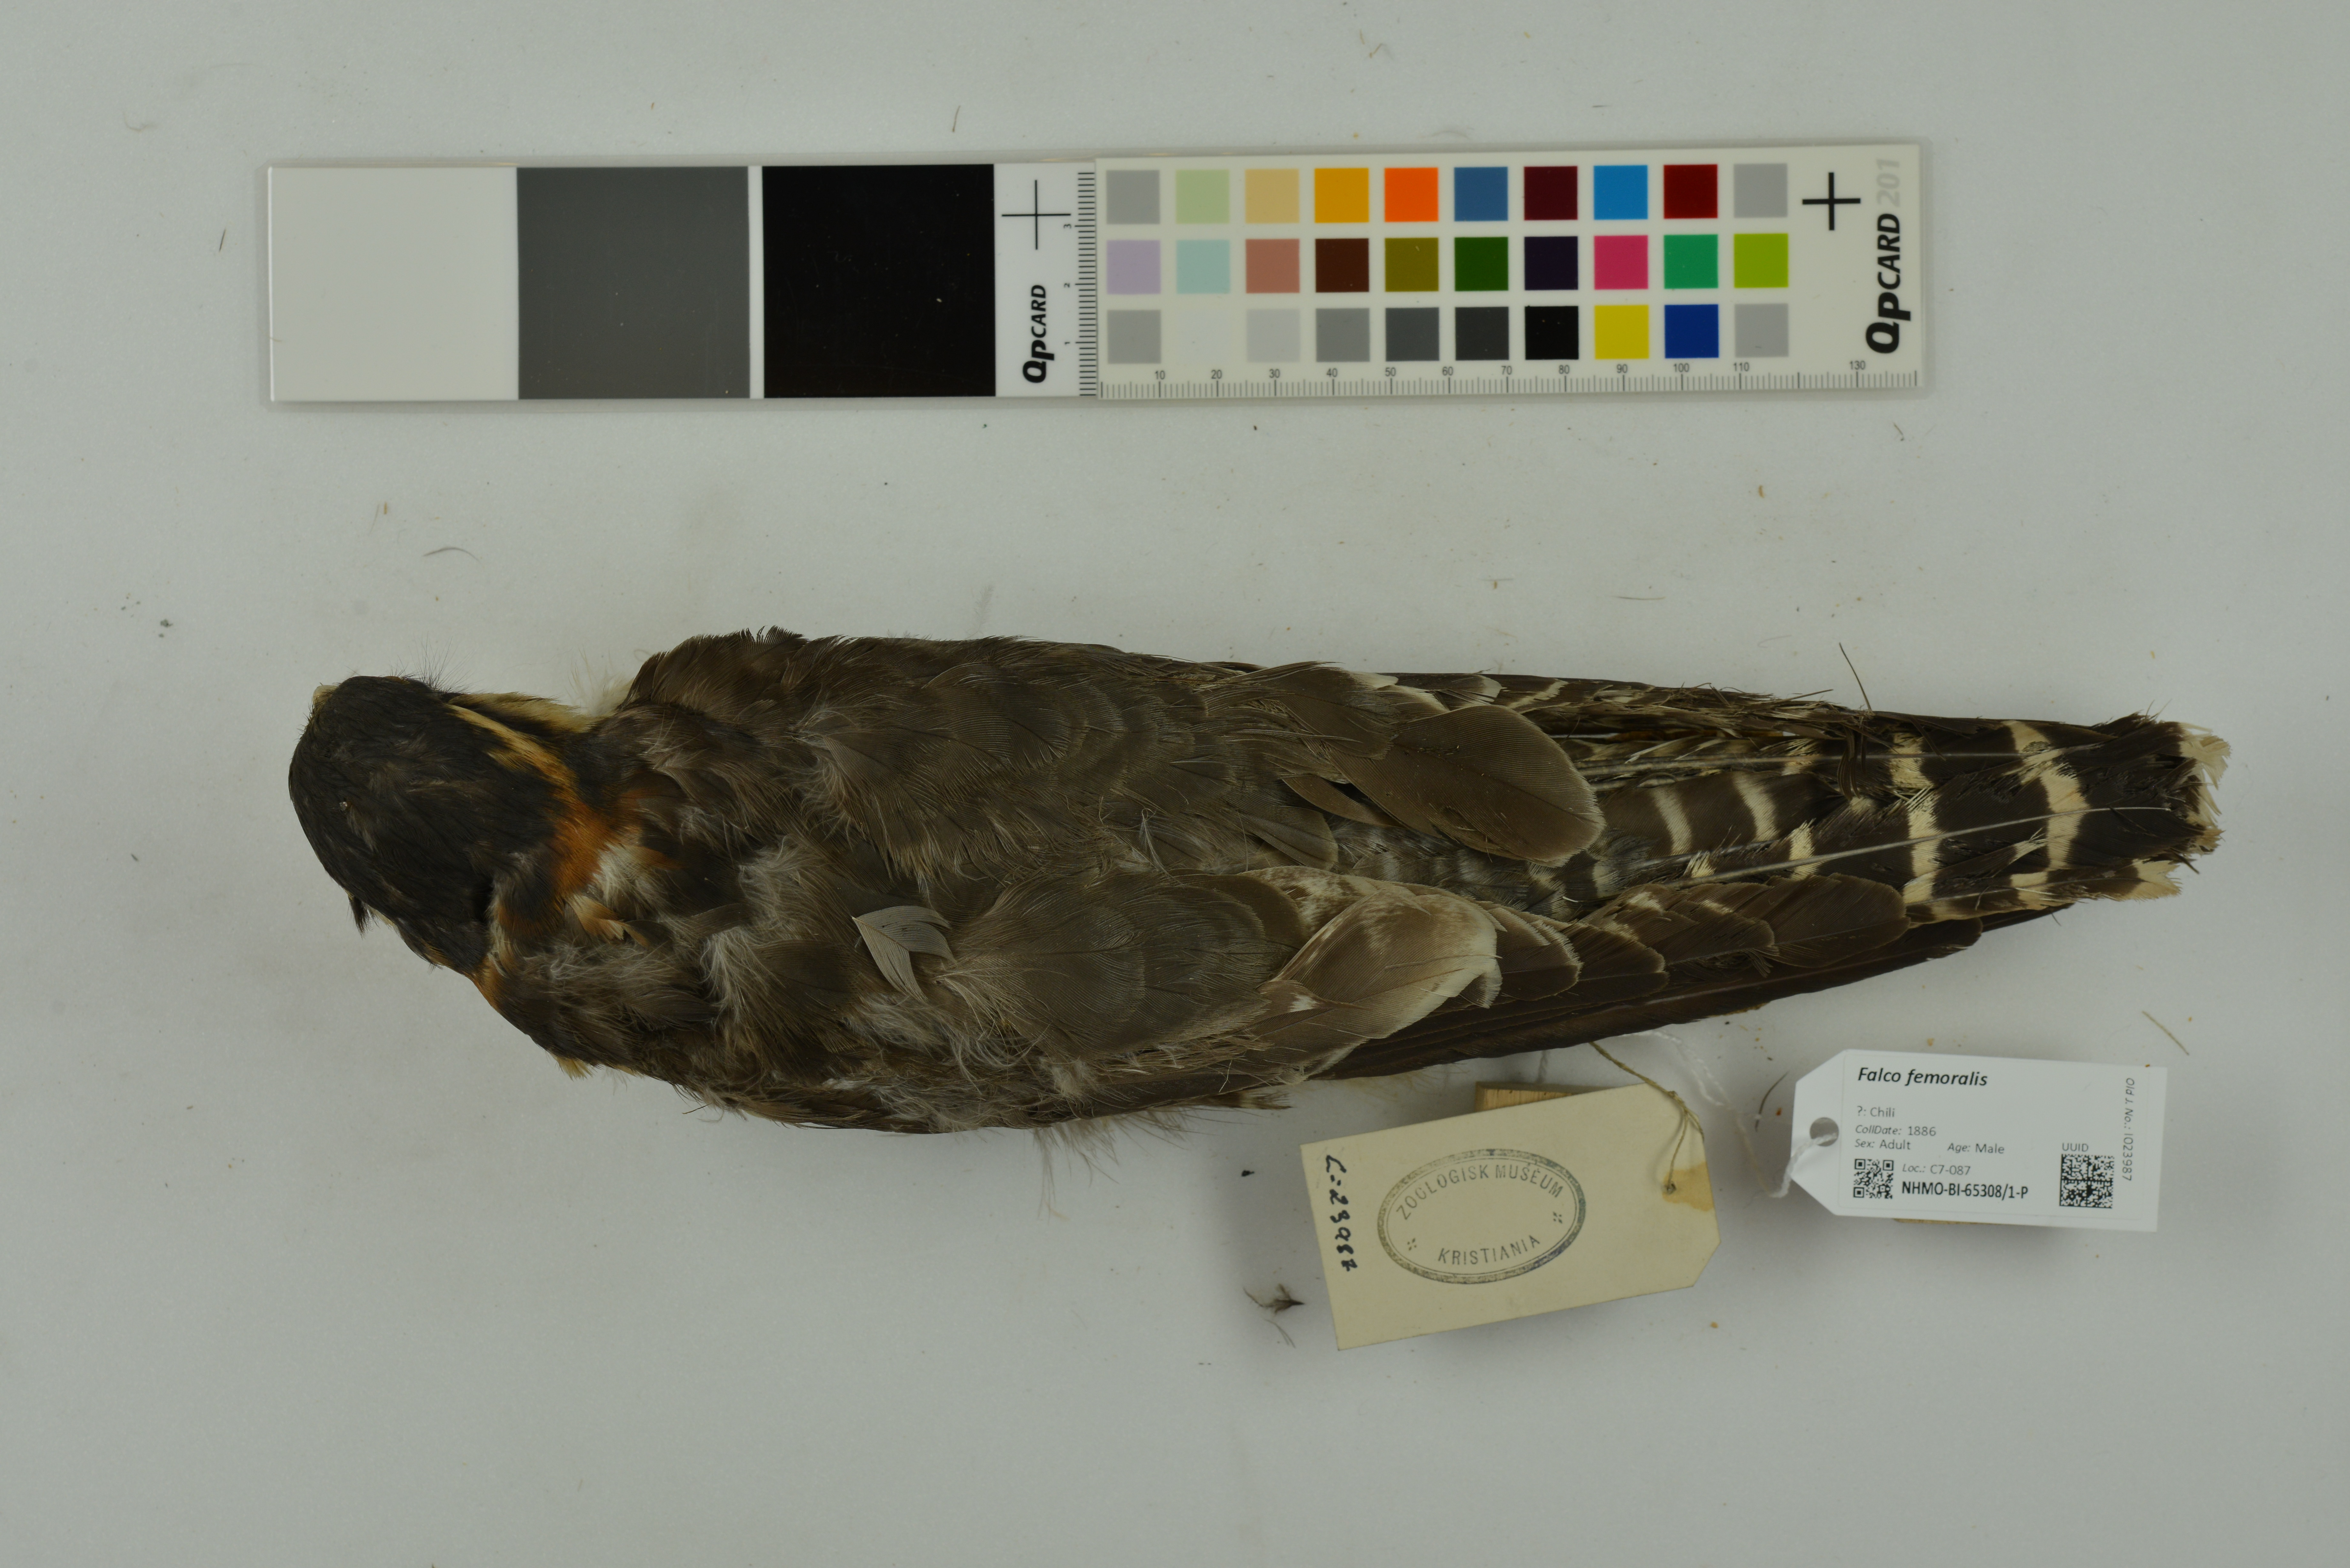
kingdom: Animalia
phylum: Chordata
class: Aves
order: Falconiformes
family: Falconidae
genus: Falco
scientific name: Falco femoralis
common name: Aplomado falcon
